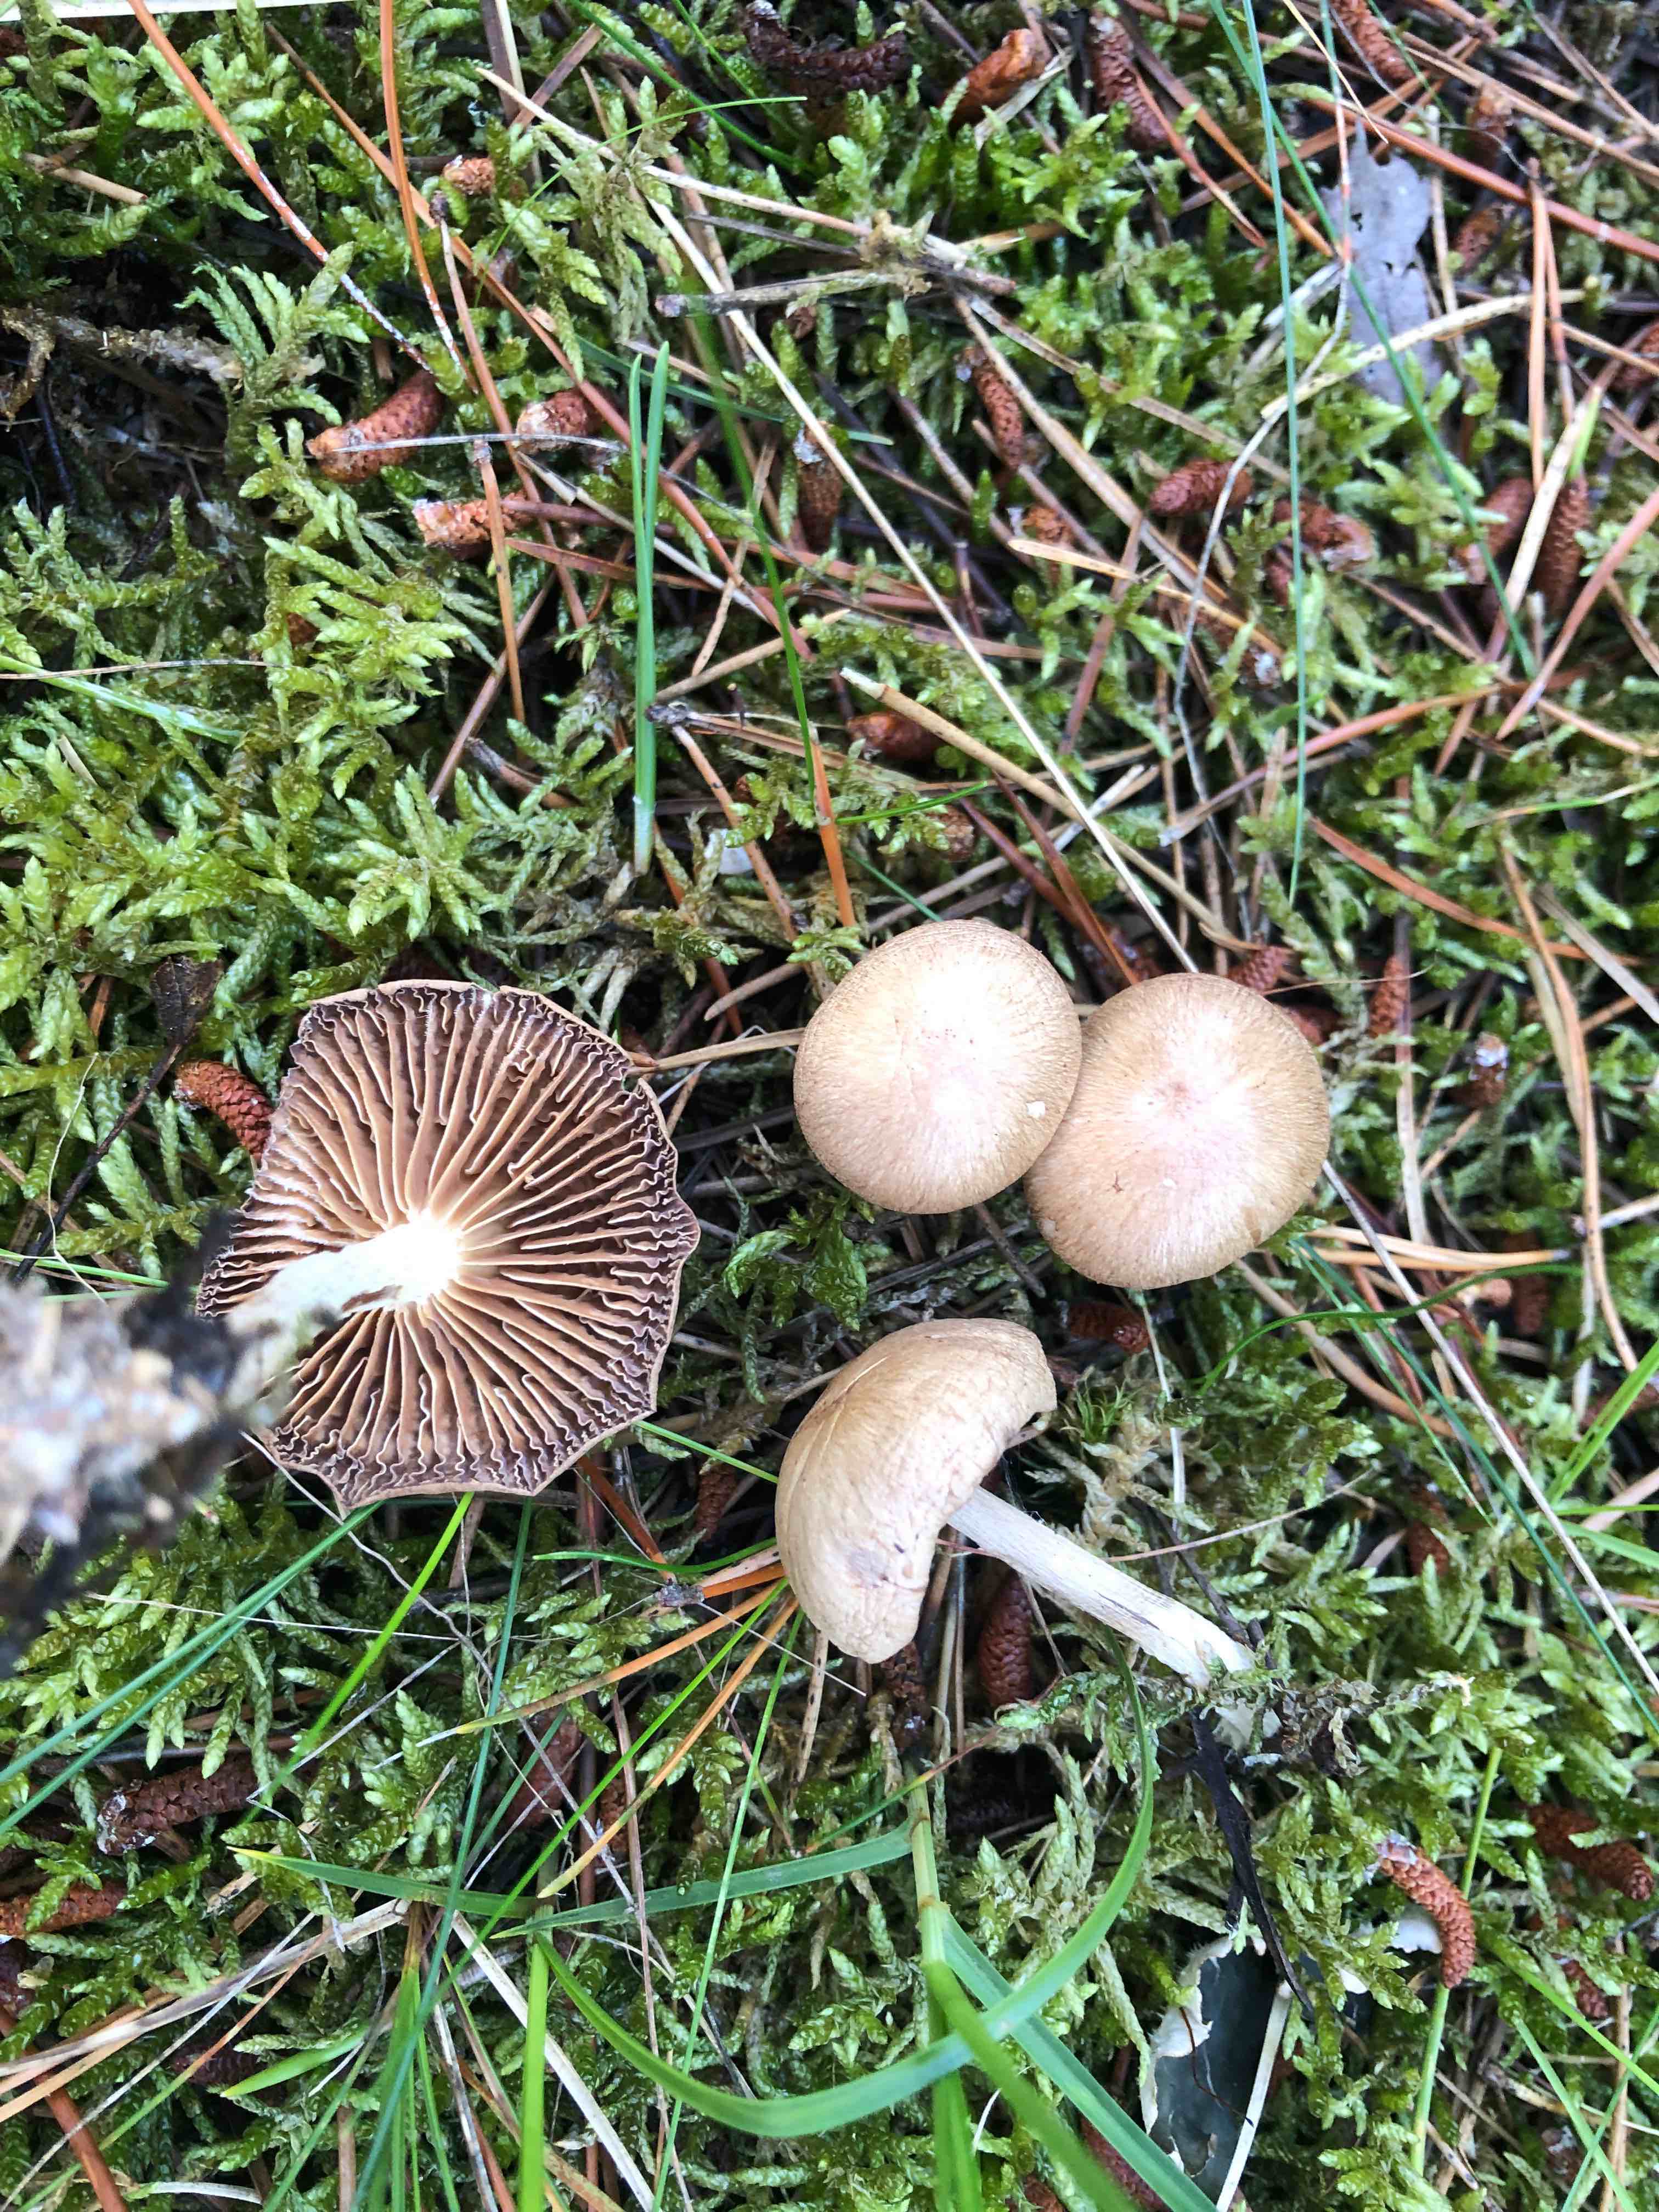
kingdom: Fungi
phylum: Basidiomycota
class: Agaricomycetes
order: Agaricales
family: Omphalotaceae
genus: Collybiopsis
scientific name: Collybiopsis peronata
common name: bestøvlet fladhat
